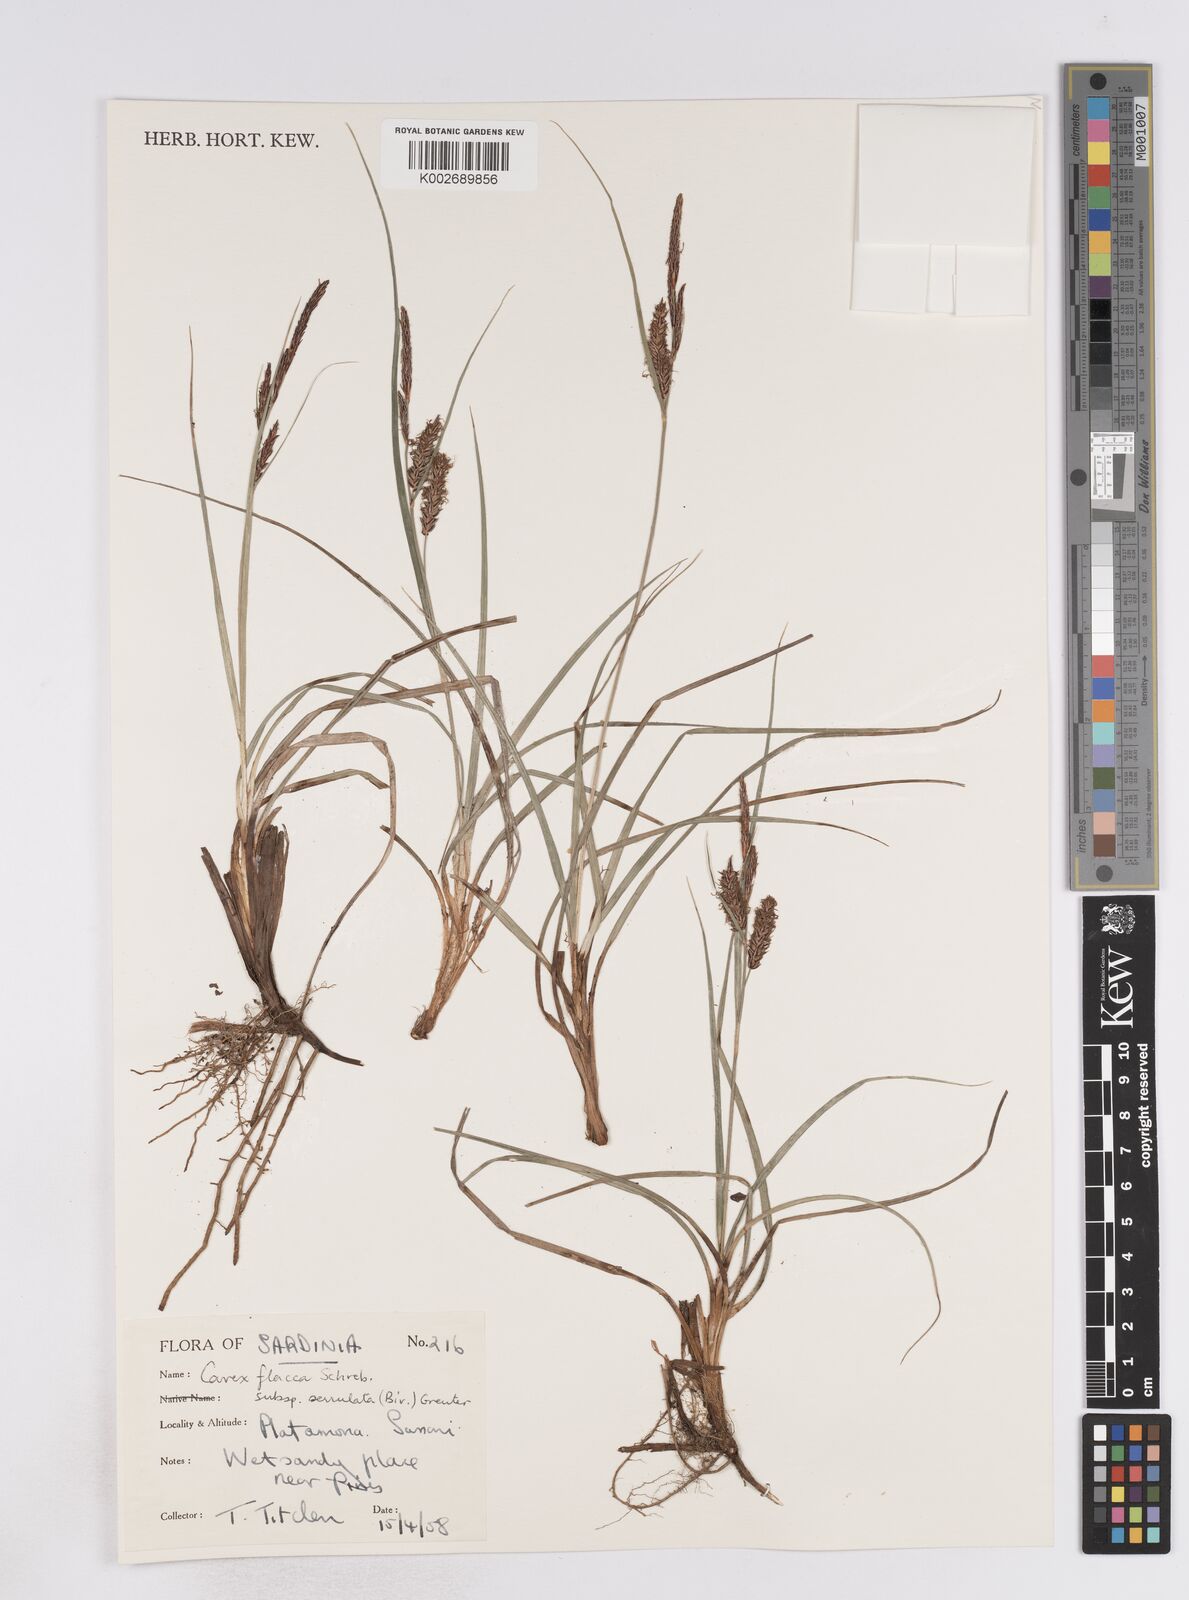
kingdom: Plantae
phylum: Tracheophyta
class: Liliopsida
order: Poales
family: Cyperaceae
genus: Carex
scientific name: Carex flacca
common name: Glaucous sedge
